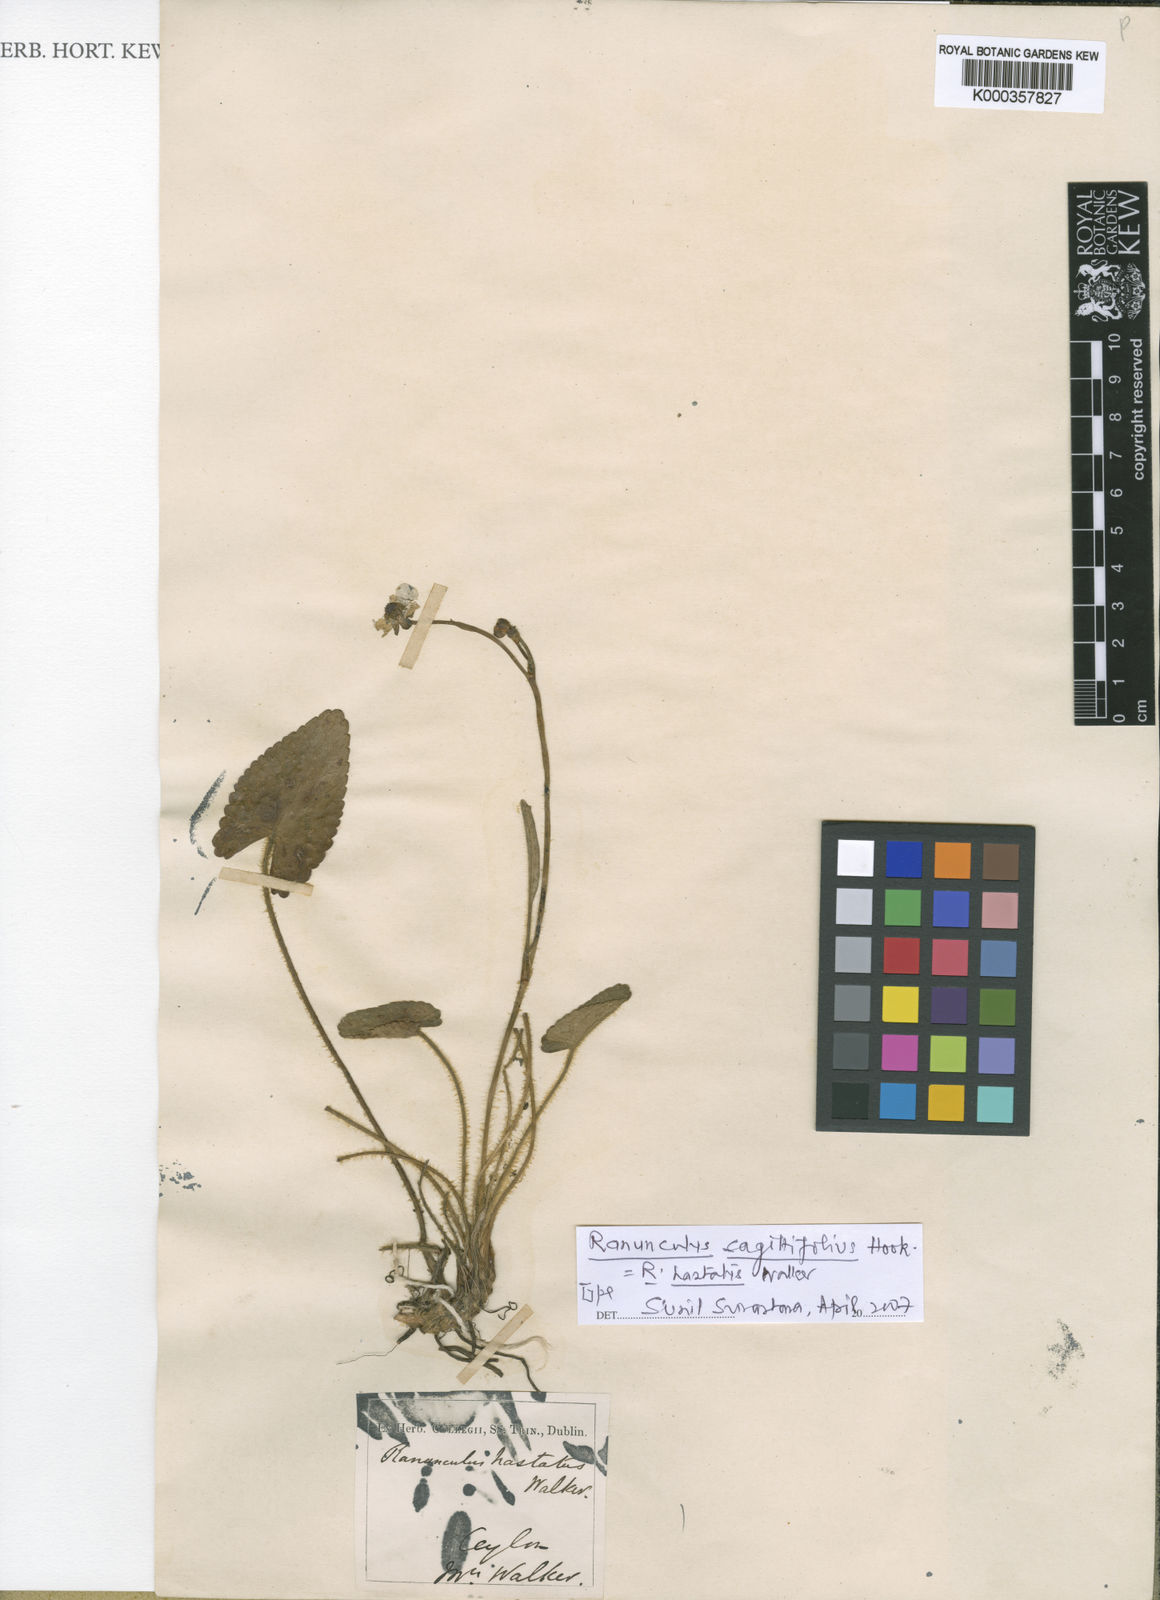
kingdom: Plantae
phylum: Tracheophyta
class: Magnoliopsida
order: Ranunculales
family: Ranunculaceae
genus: Ranunculus
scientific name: Ranunculus sagittifolius
